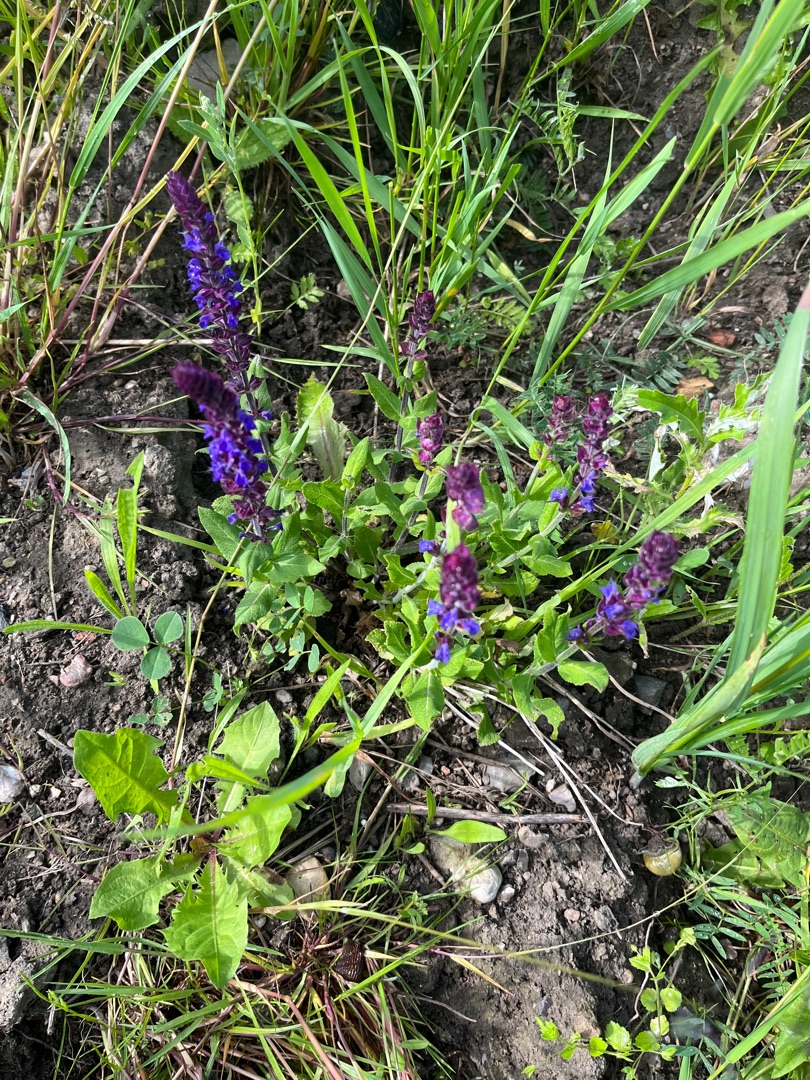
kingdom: Plantae
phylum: Tracheophyta
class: Magnoliopsida
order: Lamiales
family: Lamiaceae
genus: Salvia
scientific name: Salvia nemorosa
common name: Småblomstret salvie
